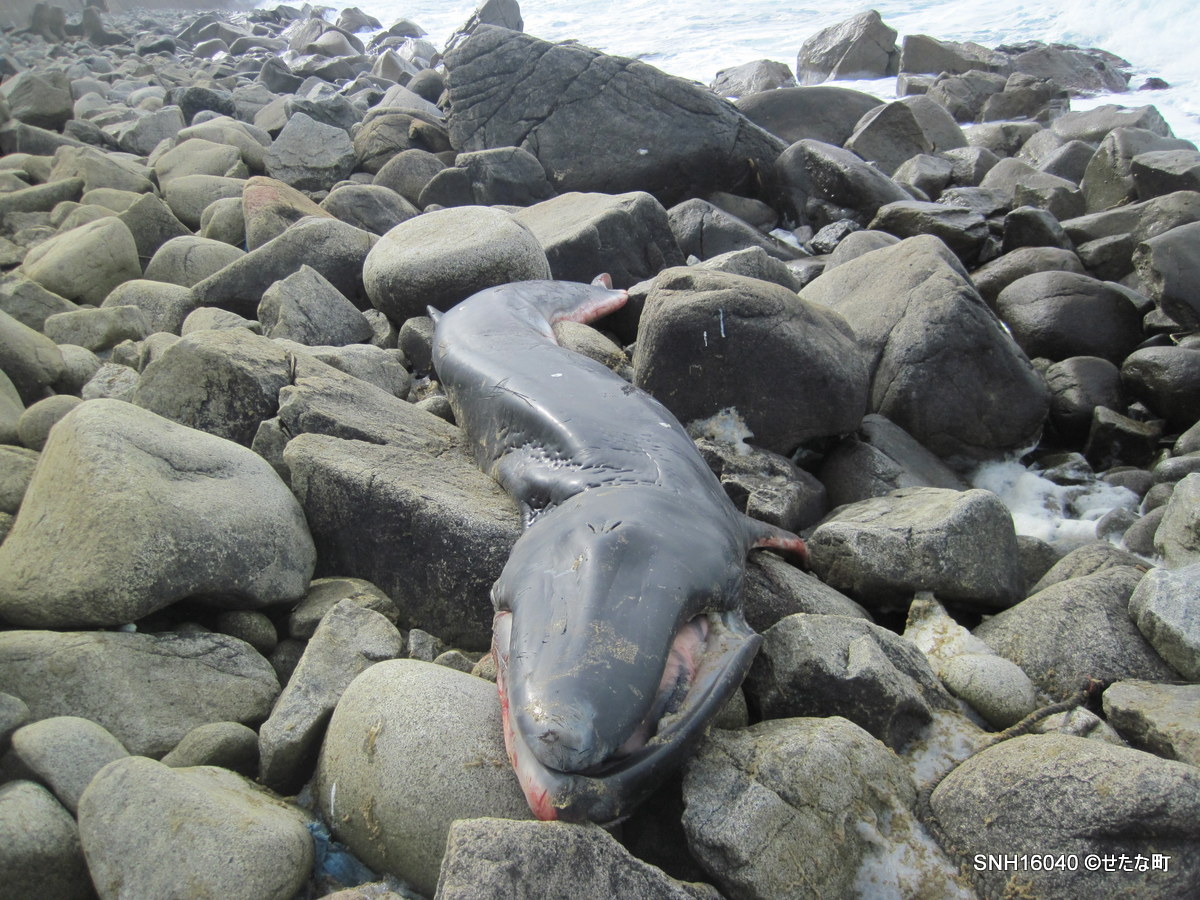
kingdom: Animalia
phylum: Chordata
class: Mammalia
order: Cetacea
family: Balaenopteridae
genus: Balaenoptera
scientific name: Balaenoptera physalus
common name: Fin whale
